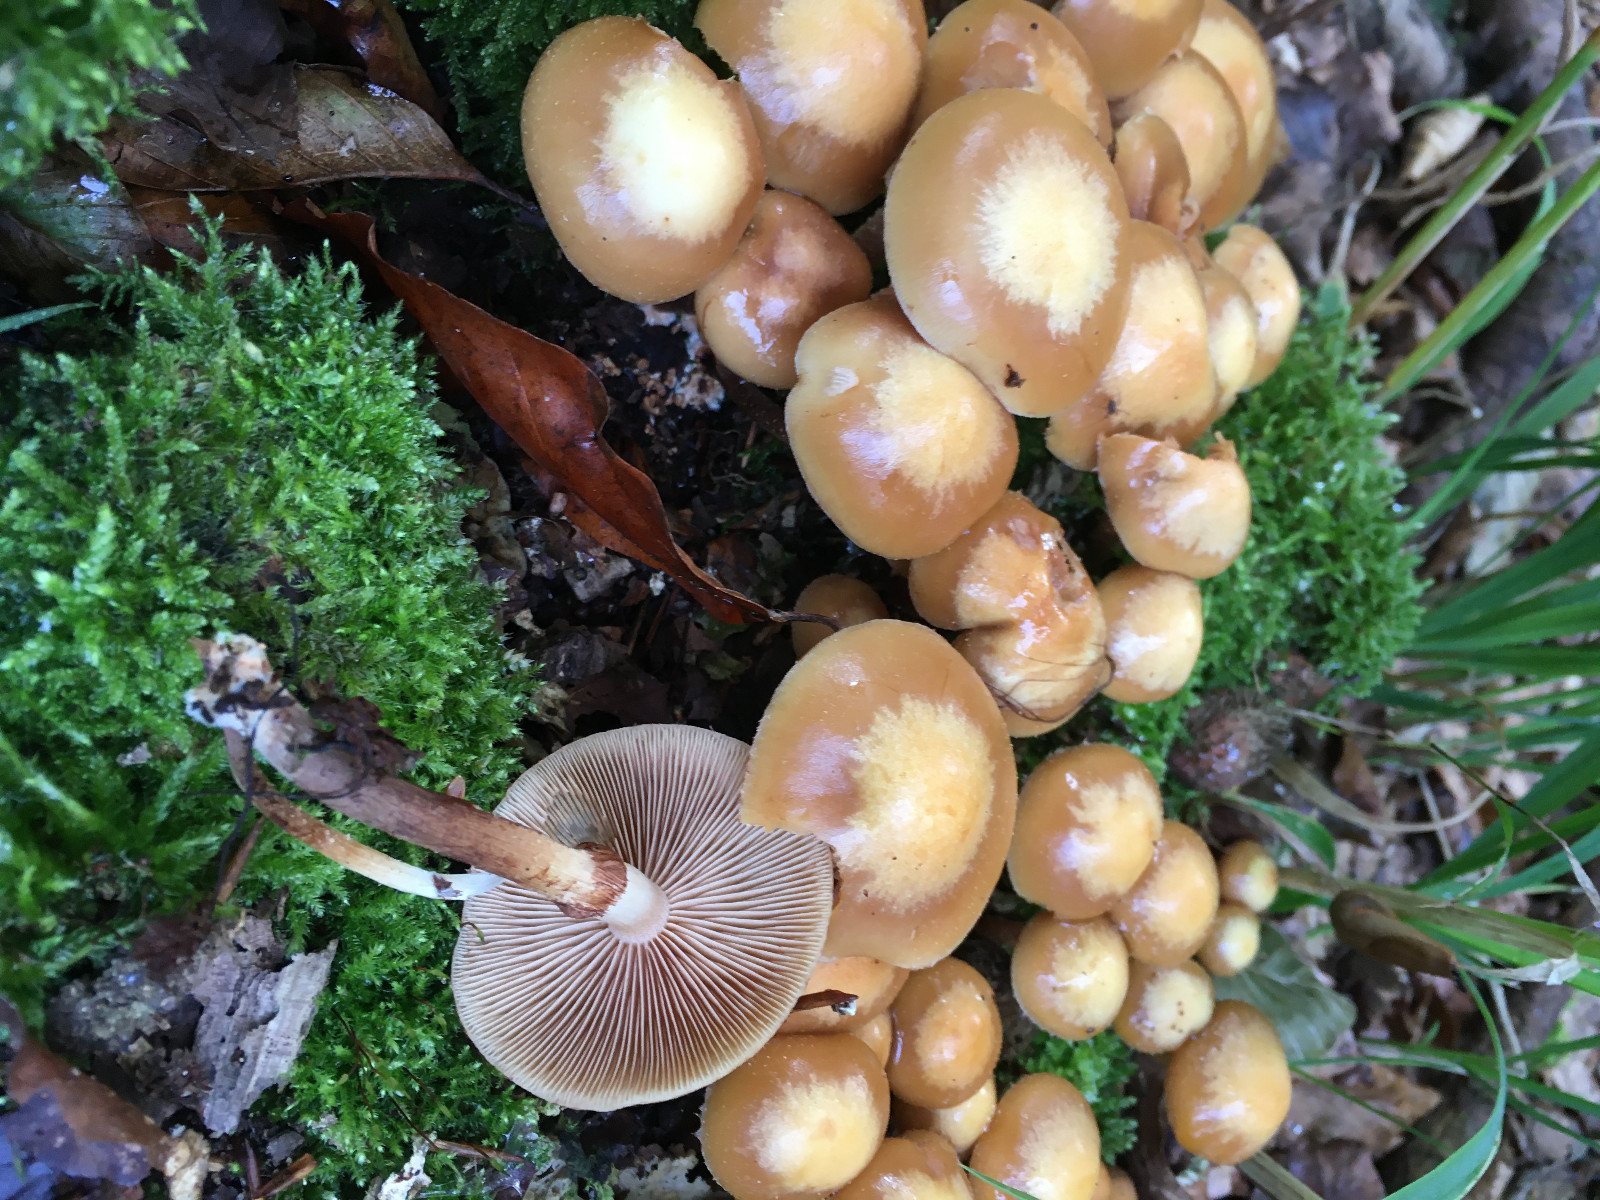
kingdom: Fungi
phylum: Basidiomycota
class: Agaricomycetes
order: Agaricales
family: Strophariaceae
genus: Kuehneromyces
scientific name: Kuehneromyces mutabilis
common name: foranderlig skælhat
